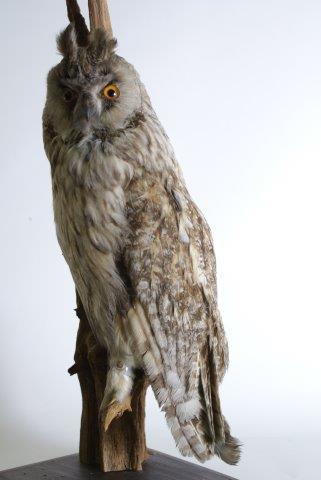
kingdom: Animalia
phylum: Chordata
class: Aves
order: Strigiformes
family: Strigidae
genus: Asio
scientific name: Asio otus
